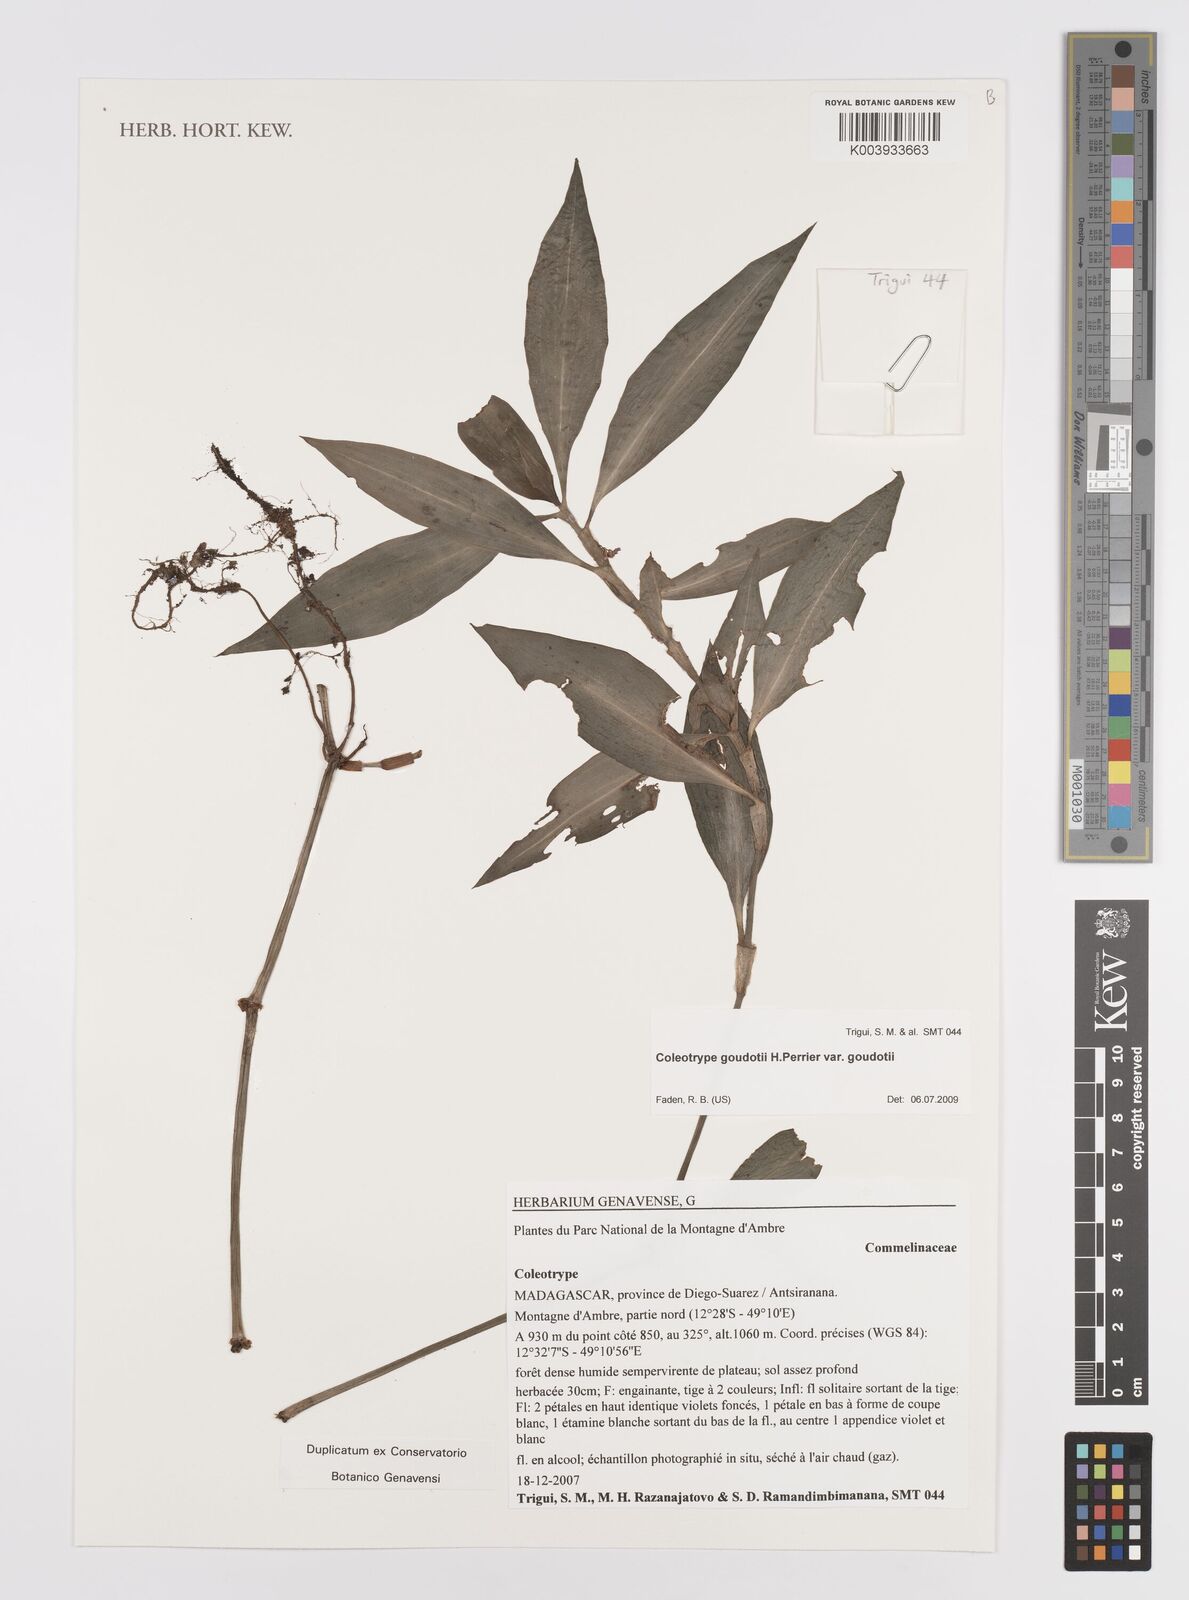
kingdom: Plantae
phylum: Tracheophyta
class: Liliopsida
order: Commelinales
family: Commelinaceae
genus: Coleotrype
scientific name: Coleotrype goudotii
